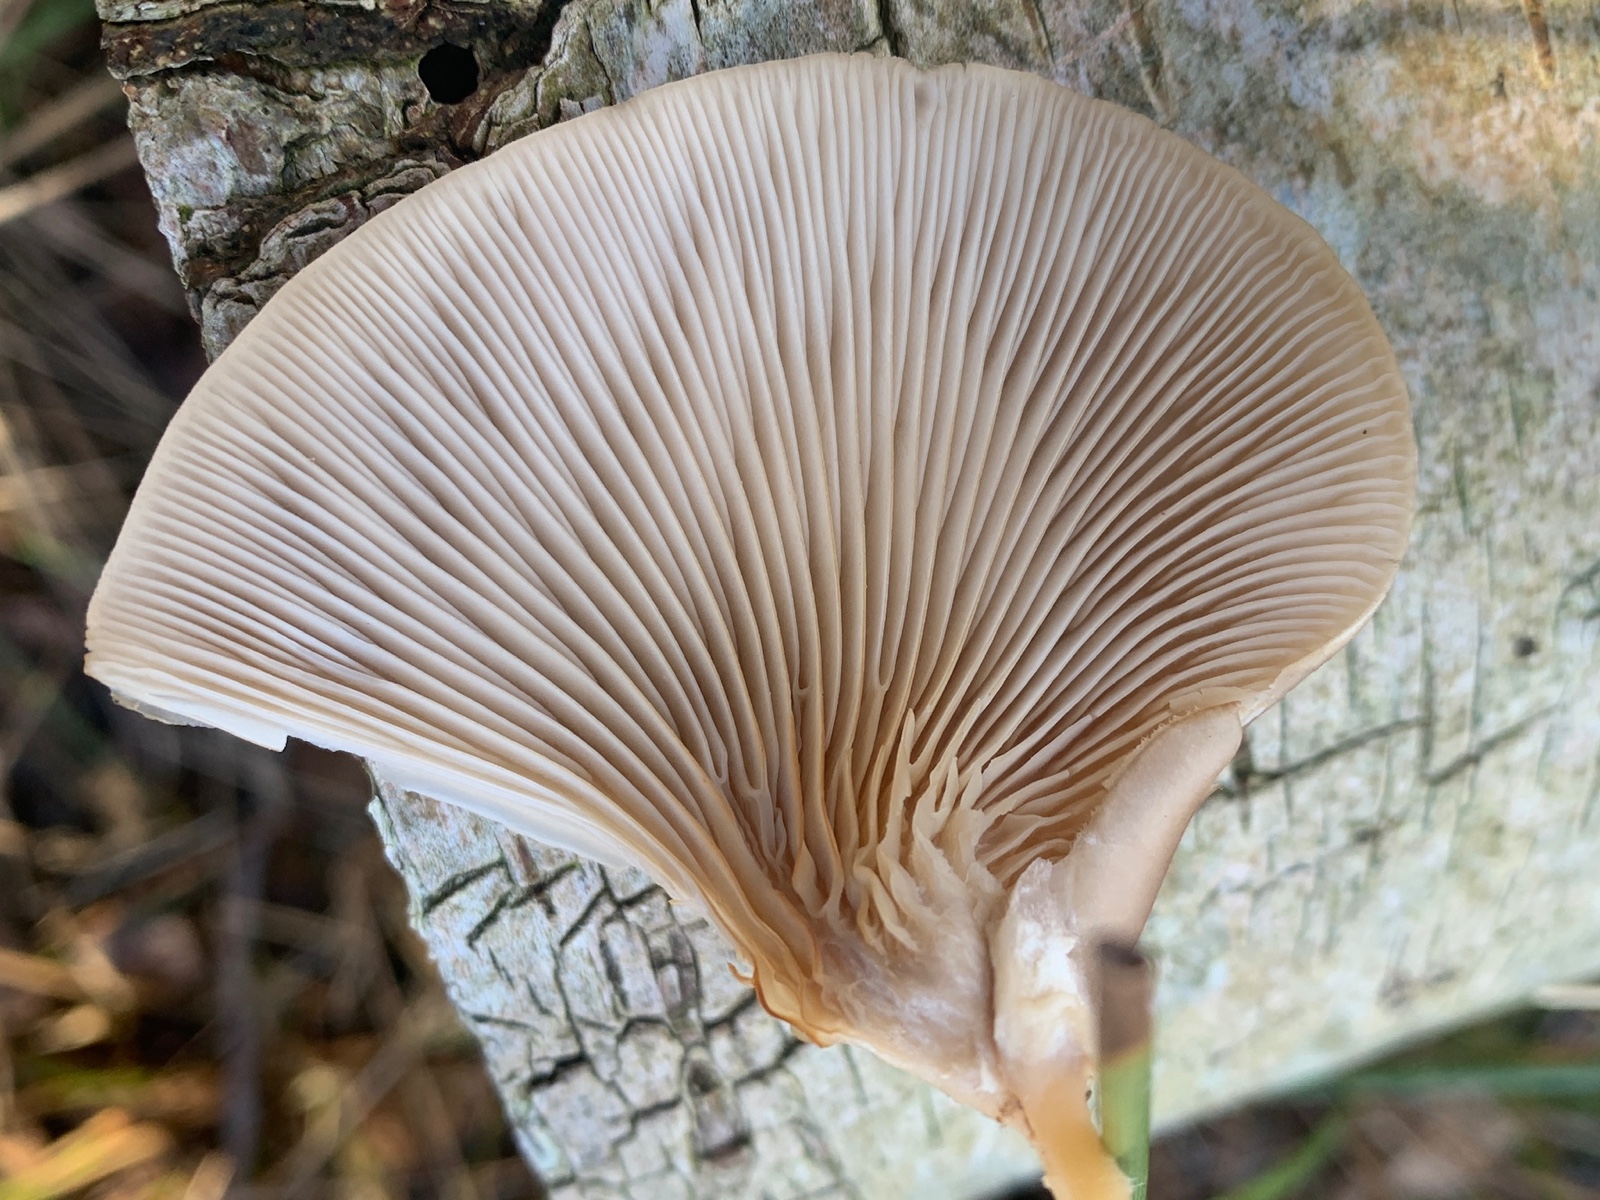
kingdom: Fungi
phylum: Basidiomycota
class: Agaricomycetes
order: Agaricales
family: Pleurotaceae
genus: Pleurotus
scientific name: Pleurotus ostreatus
